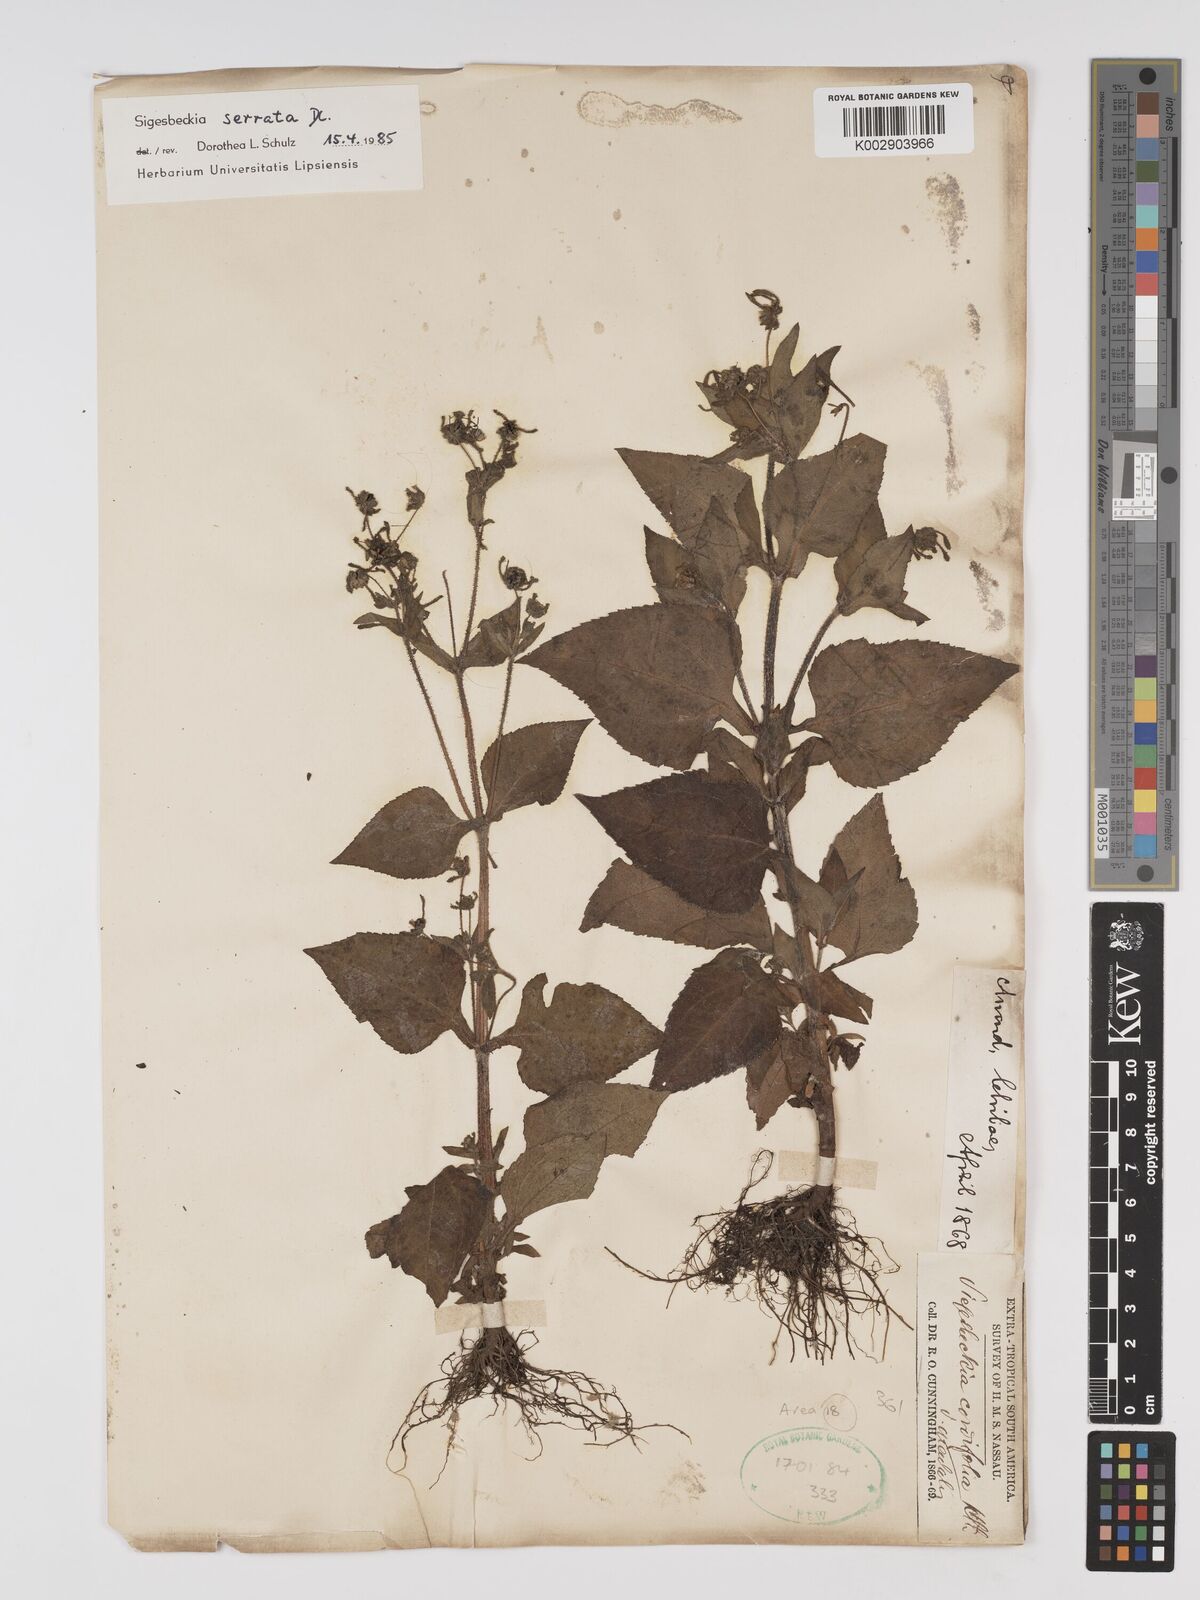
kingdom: Plantae
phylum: Tracheophyta
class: Magnoliopsida
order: Asterales
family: Asteraceae
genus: Sigesbeckia
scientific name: Sigesbeckia jorullensis
